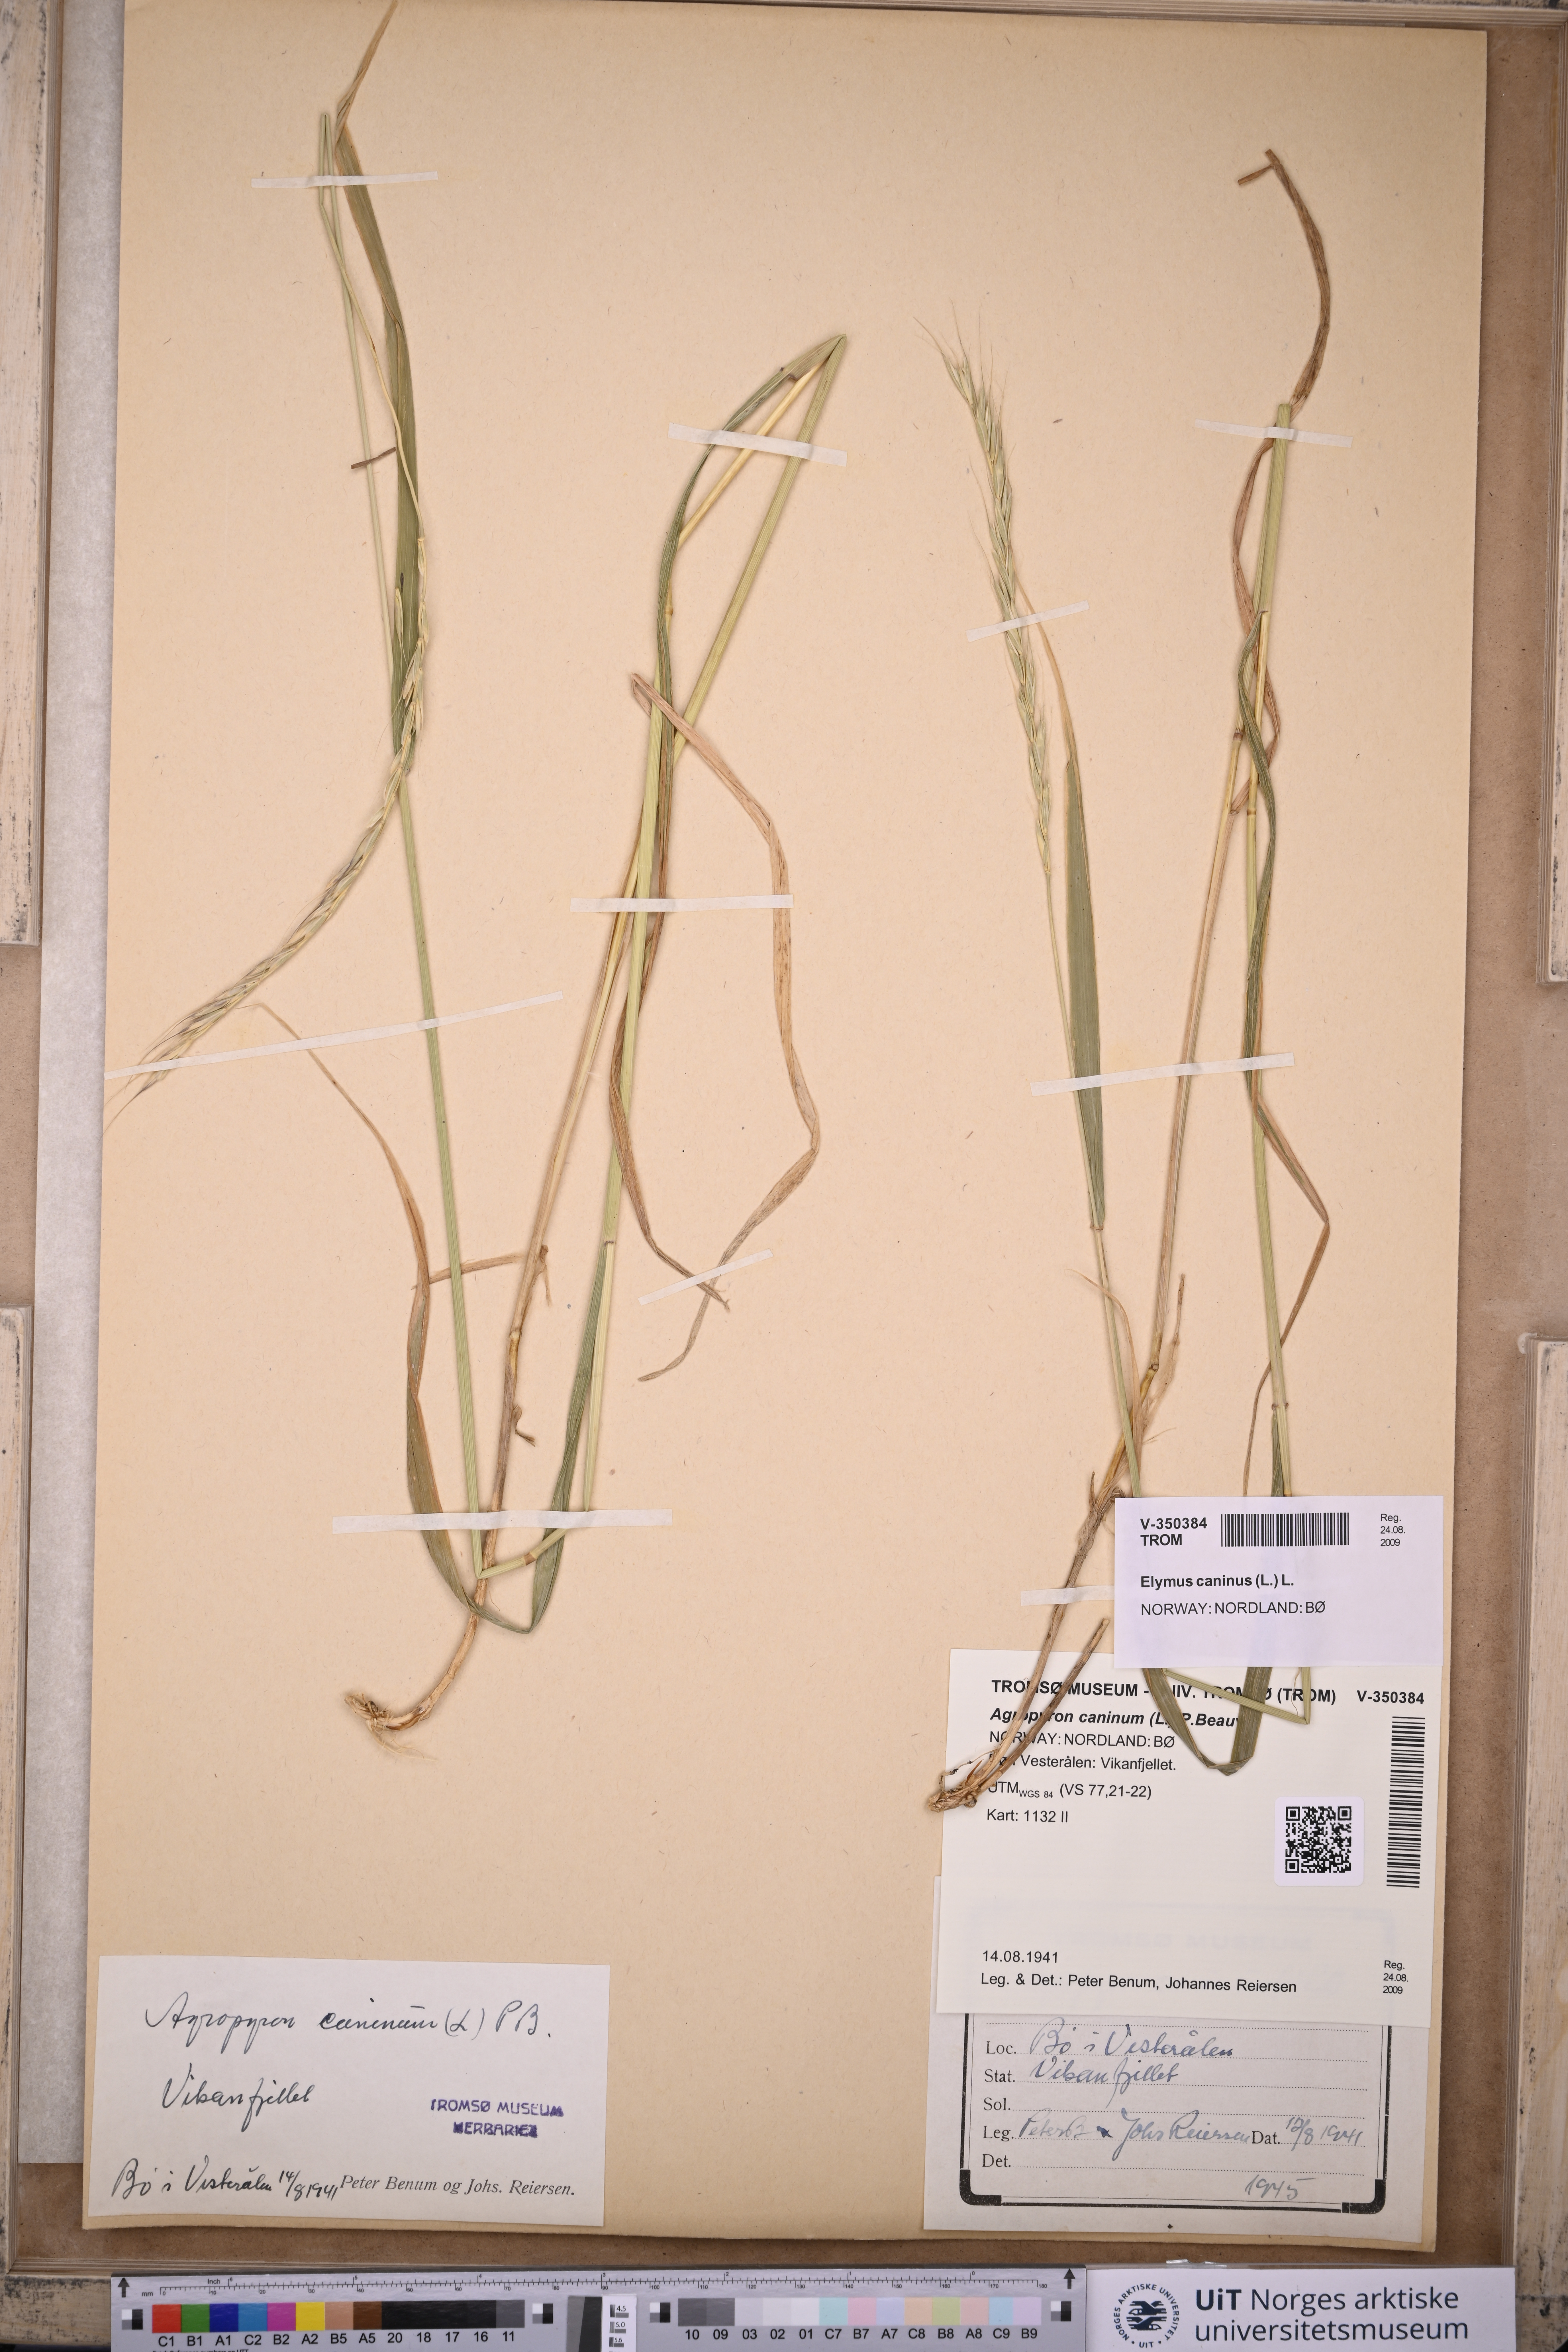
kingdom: Plantae
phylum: Tracheophyta
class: Liliopsida
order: Poales
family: Poaceae
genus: Elymus
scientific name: Elymus caninus
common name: Bearded couch
